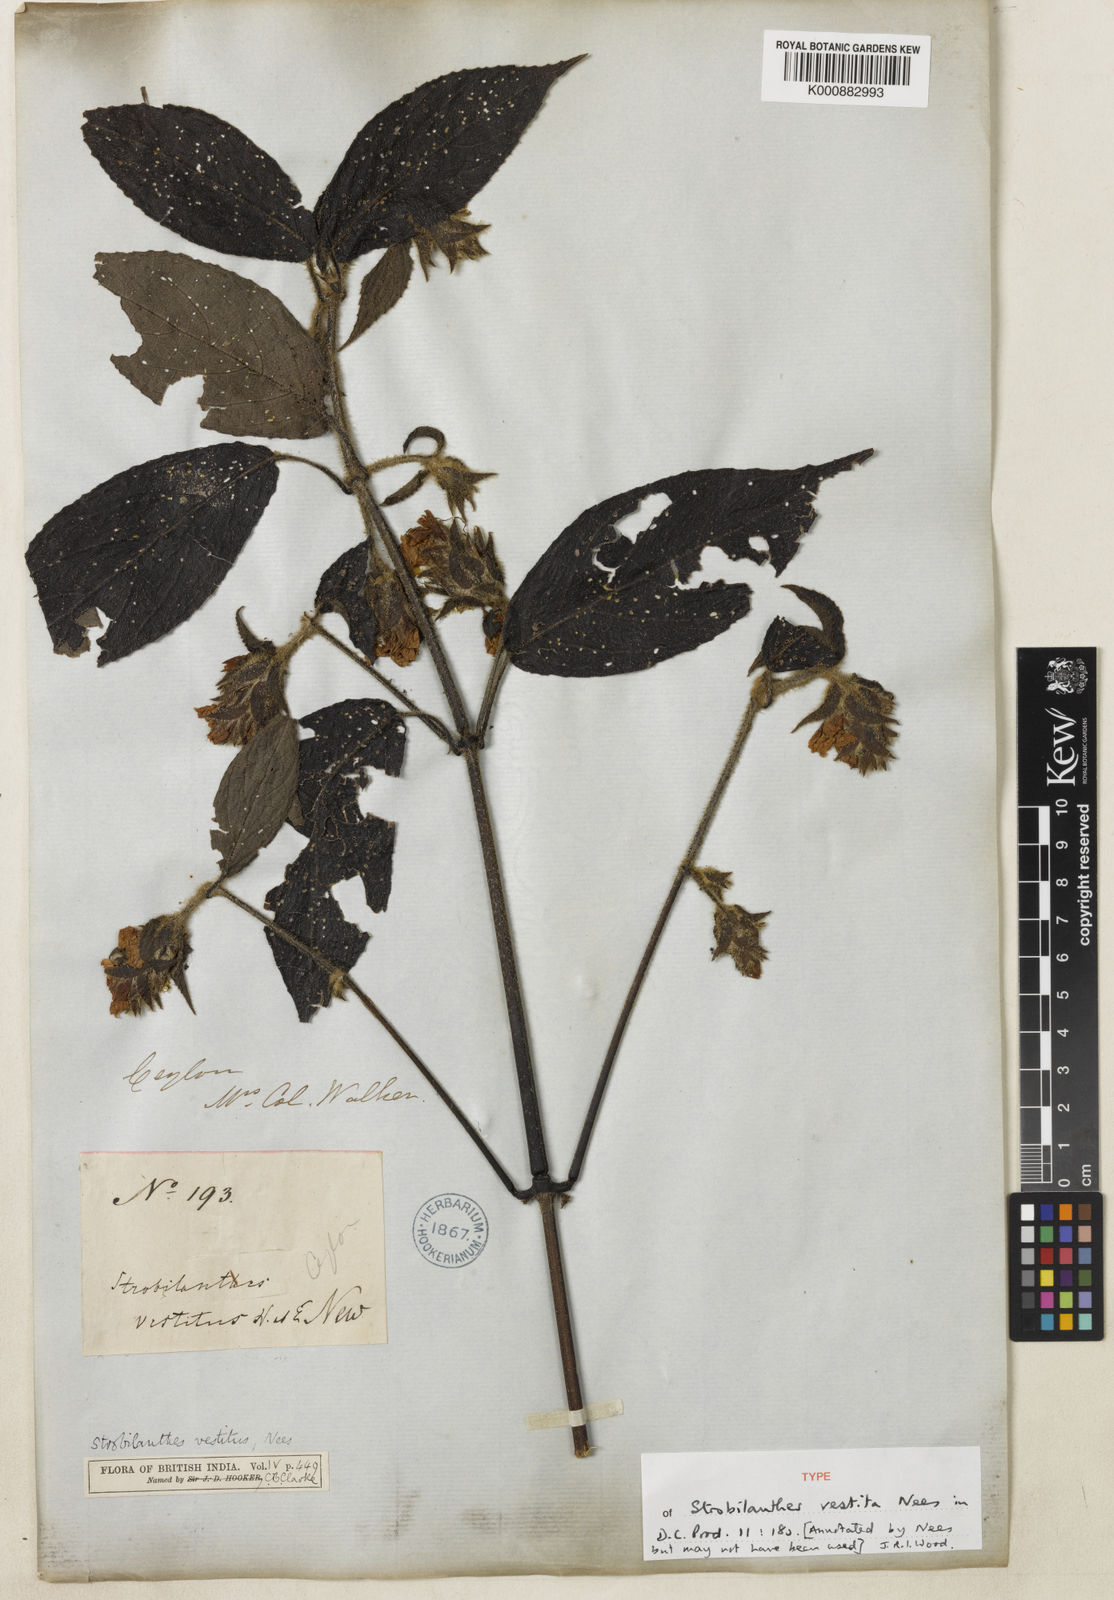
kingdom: Plantae
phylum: Tracheophyta
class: Magnoliopsida
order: Lamiales
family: Acanthaceae
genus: Strobilanthes
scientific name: Strobilanthes vestita
